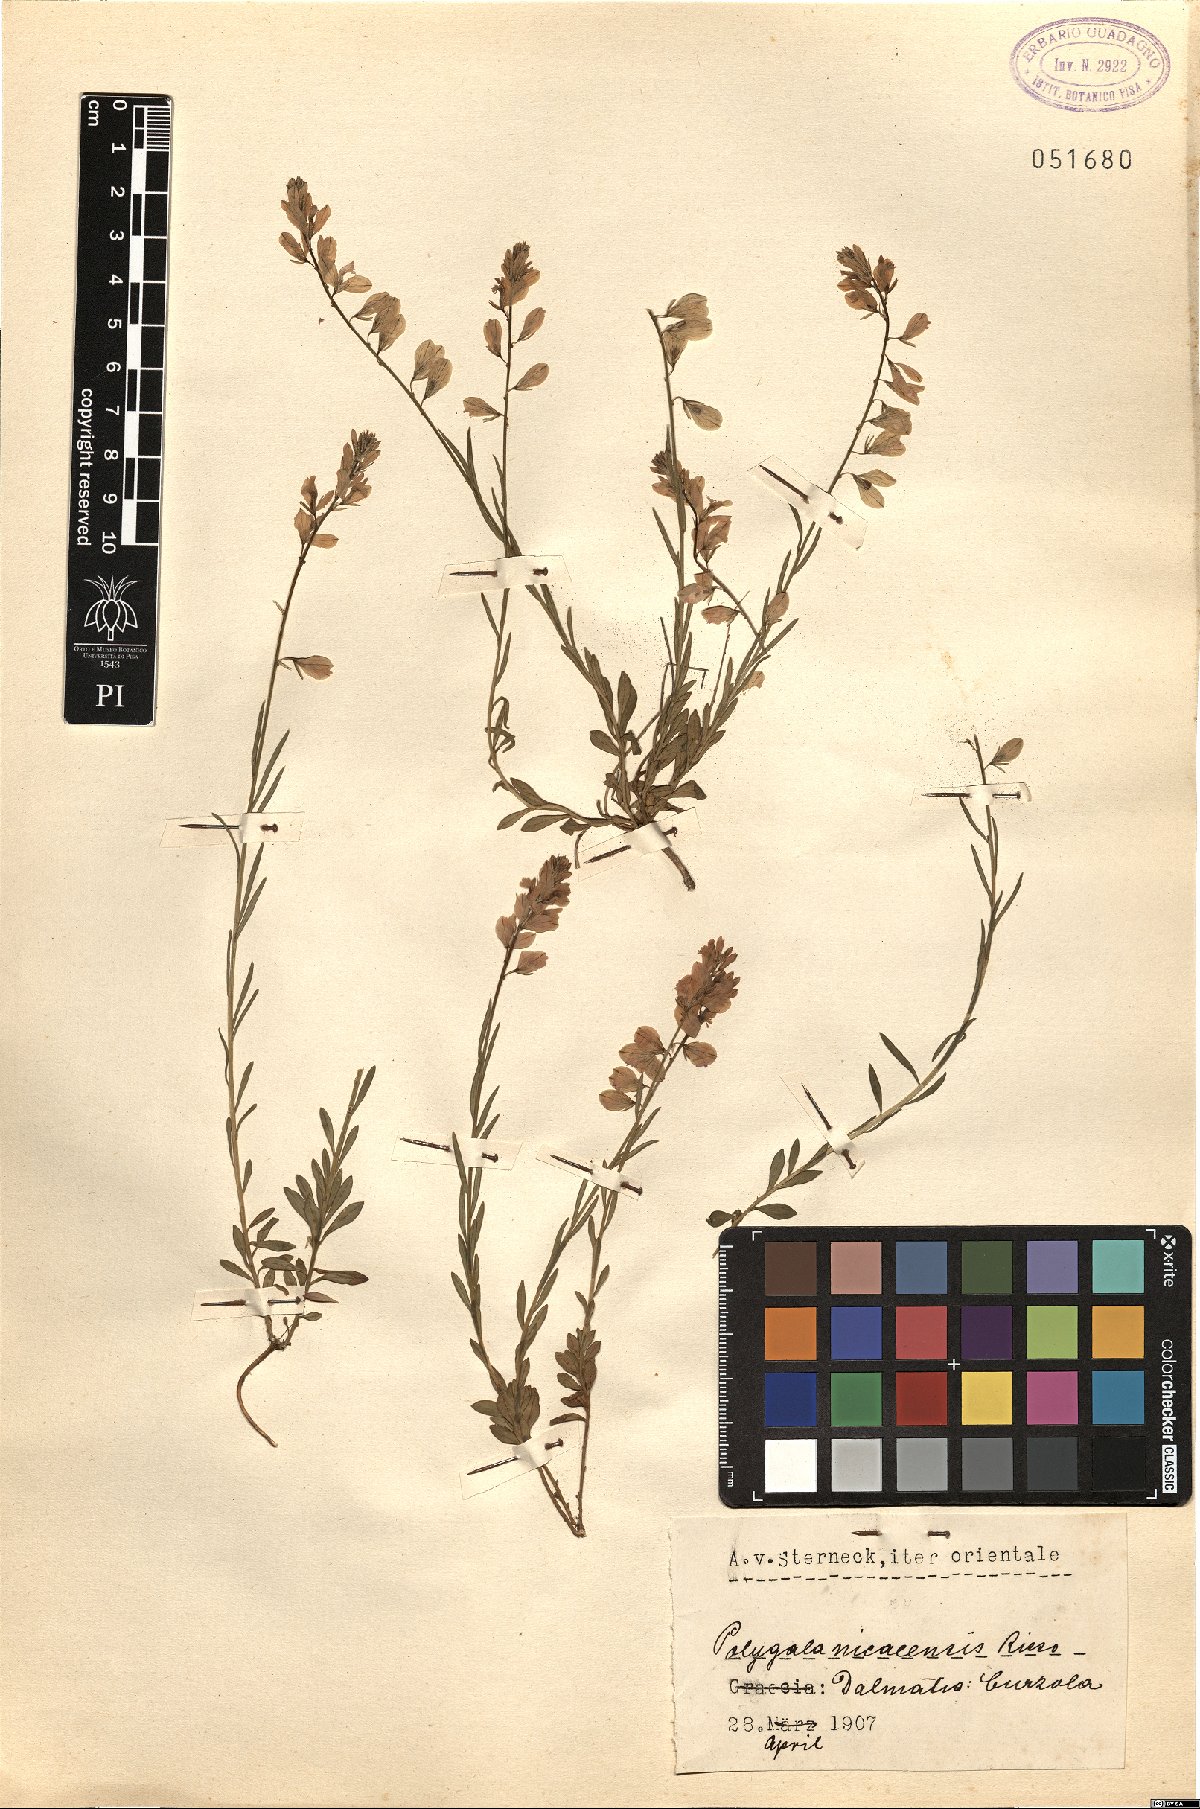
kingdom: Plantae
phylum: Tracheophyta
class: Magnoliopsida
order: Fabales
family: Polygalaceae
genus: Polygala
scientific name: Polygala nicaeensis
